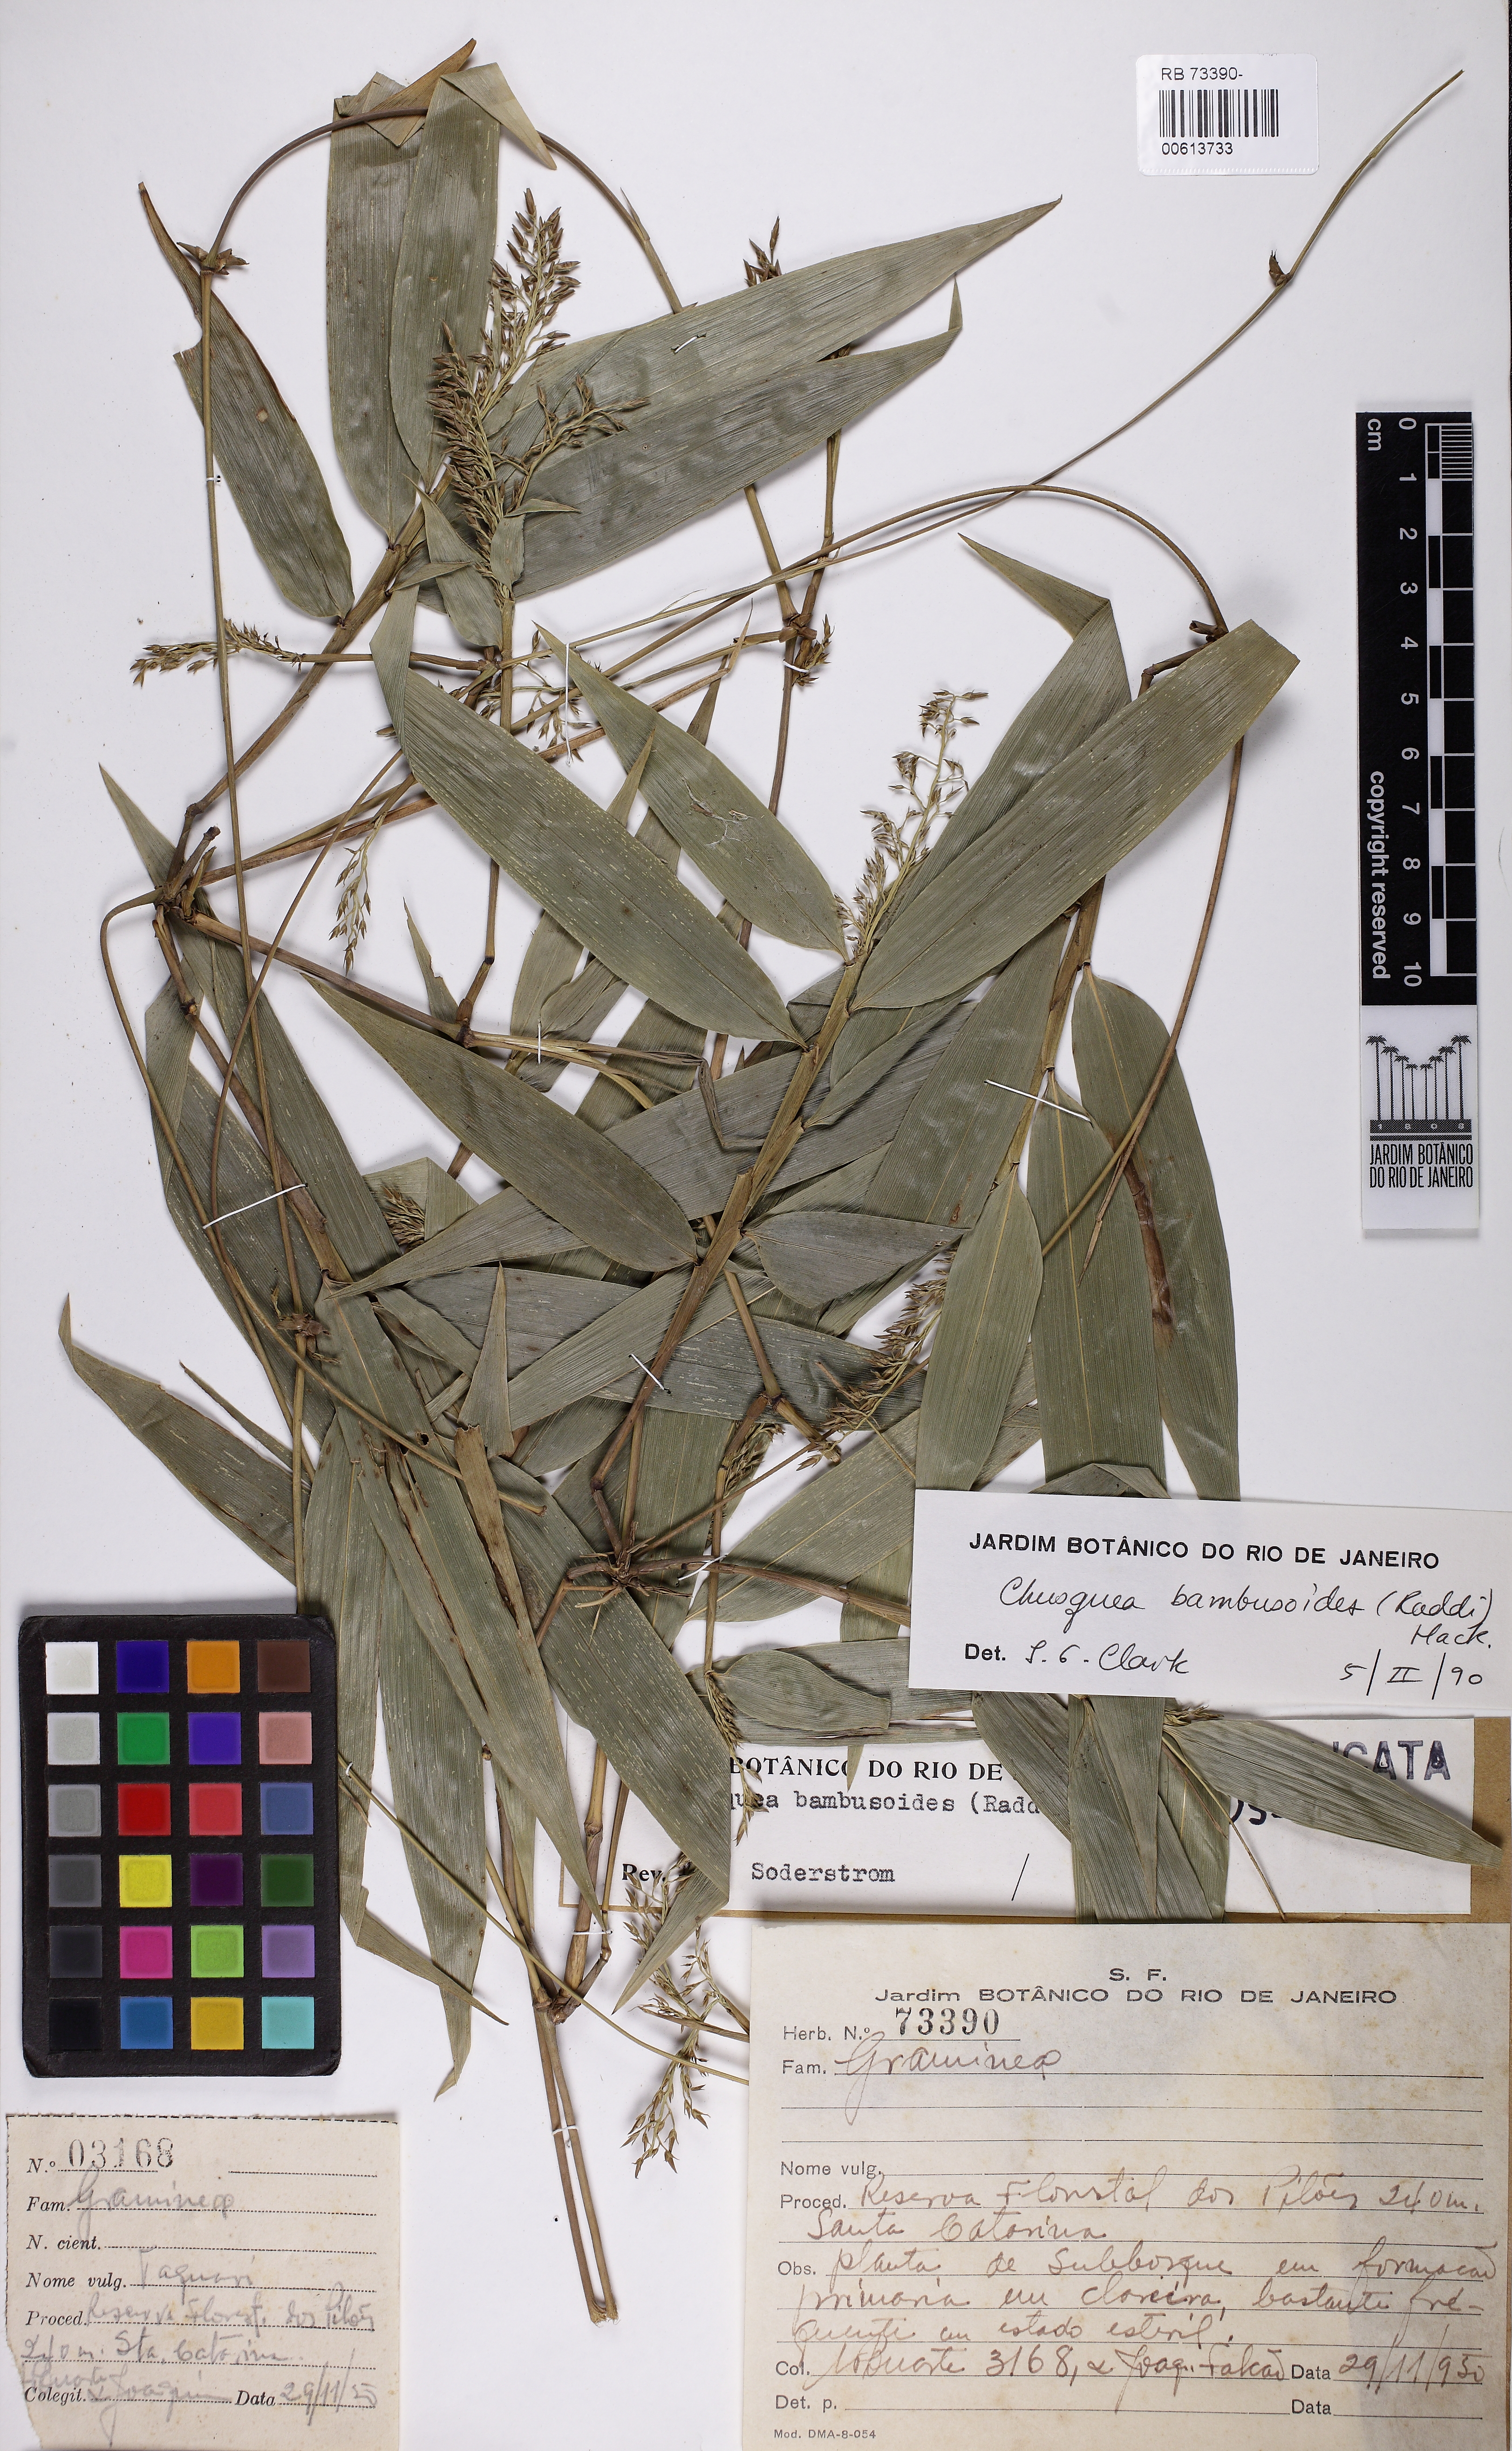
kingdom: Plantae
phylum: Tracheophyta
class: Liliopsida
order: Poales
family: Poaceae
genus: Chusquea
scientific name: Chusquea bambusoides
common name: Brazil scrambling bamboo
